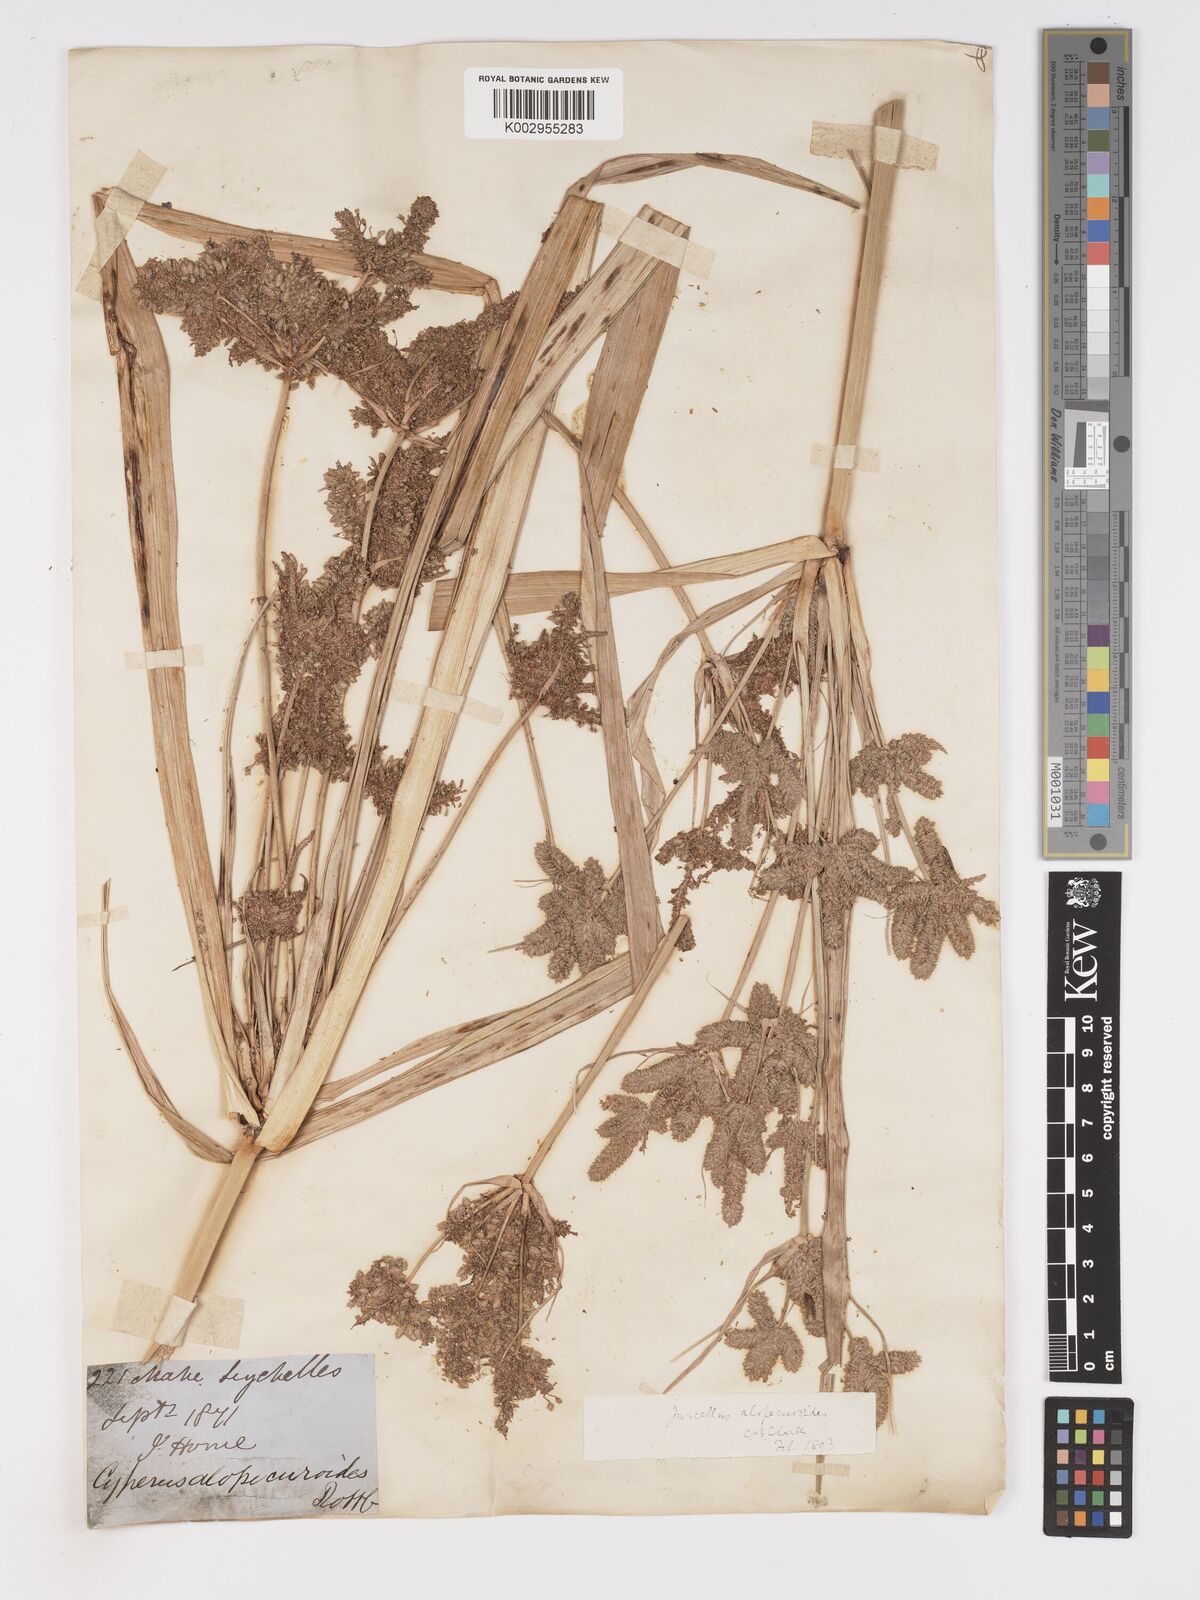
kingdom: Plantae
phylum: Tracheophyta
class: Liliopsida
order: Poales
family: Cyperaceae
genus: Cyperus
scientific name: Cyperus alopecuroides
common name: Foxtail flatsedge
